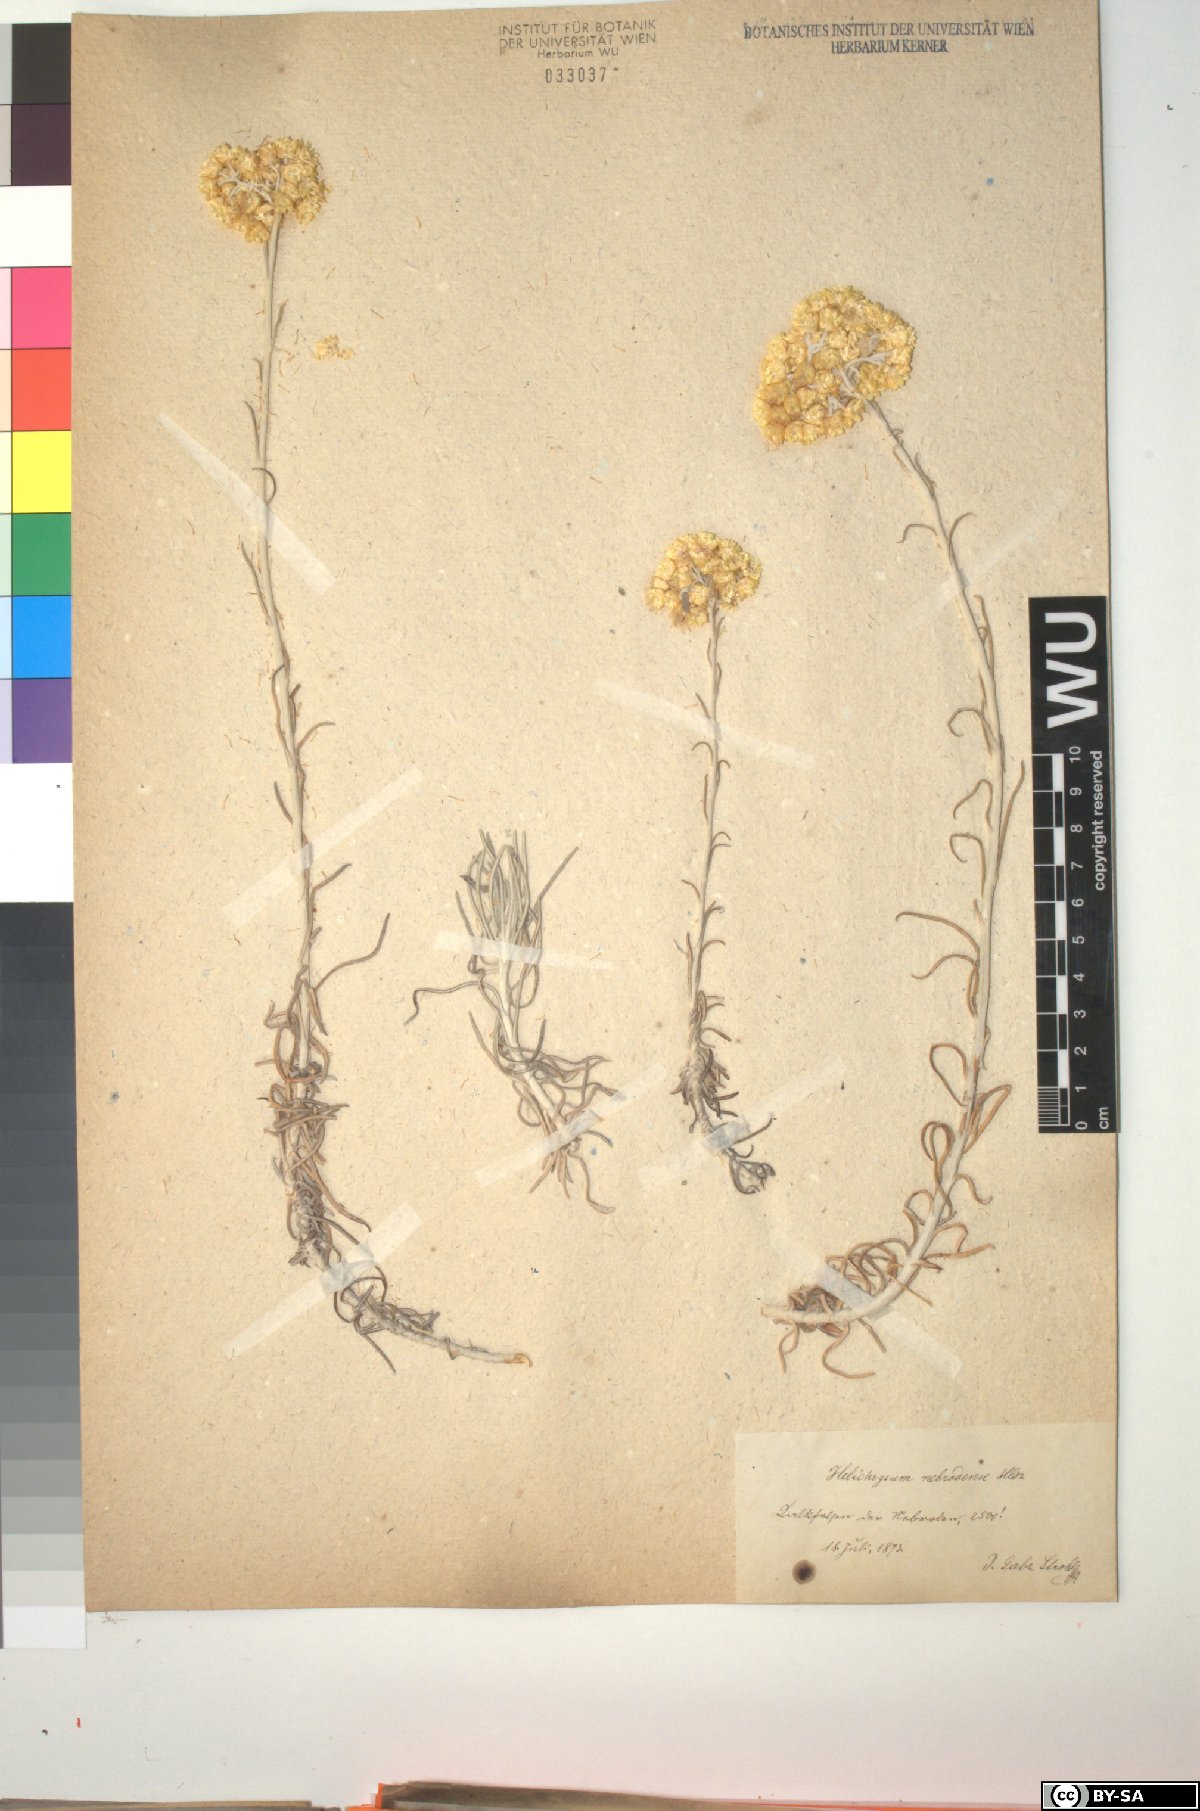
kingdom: Plantae
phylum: Tracheophyta
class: Magnoliopsida
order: Asterales
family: Asteraceae
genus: Helichrysum
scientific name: Helichrysum pendulum
